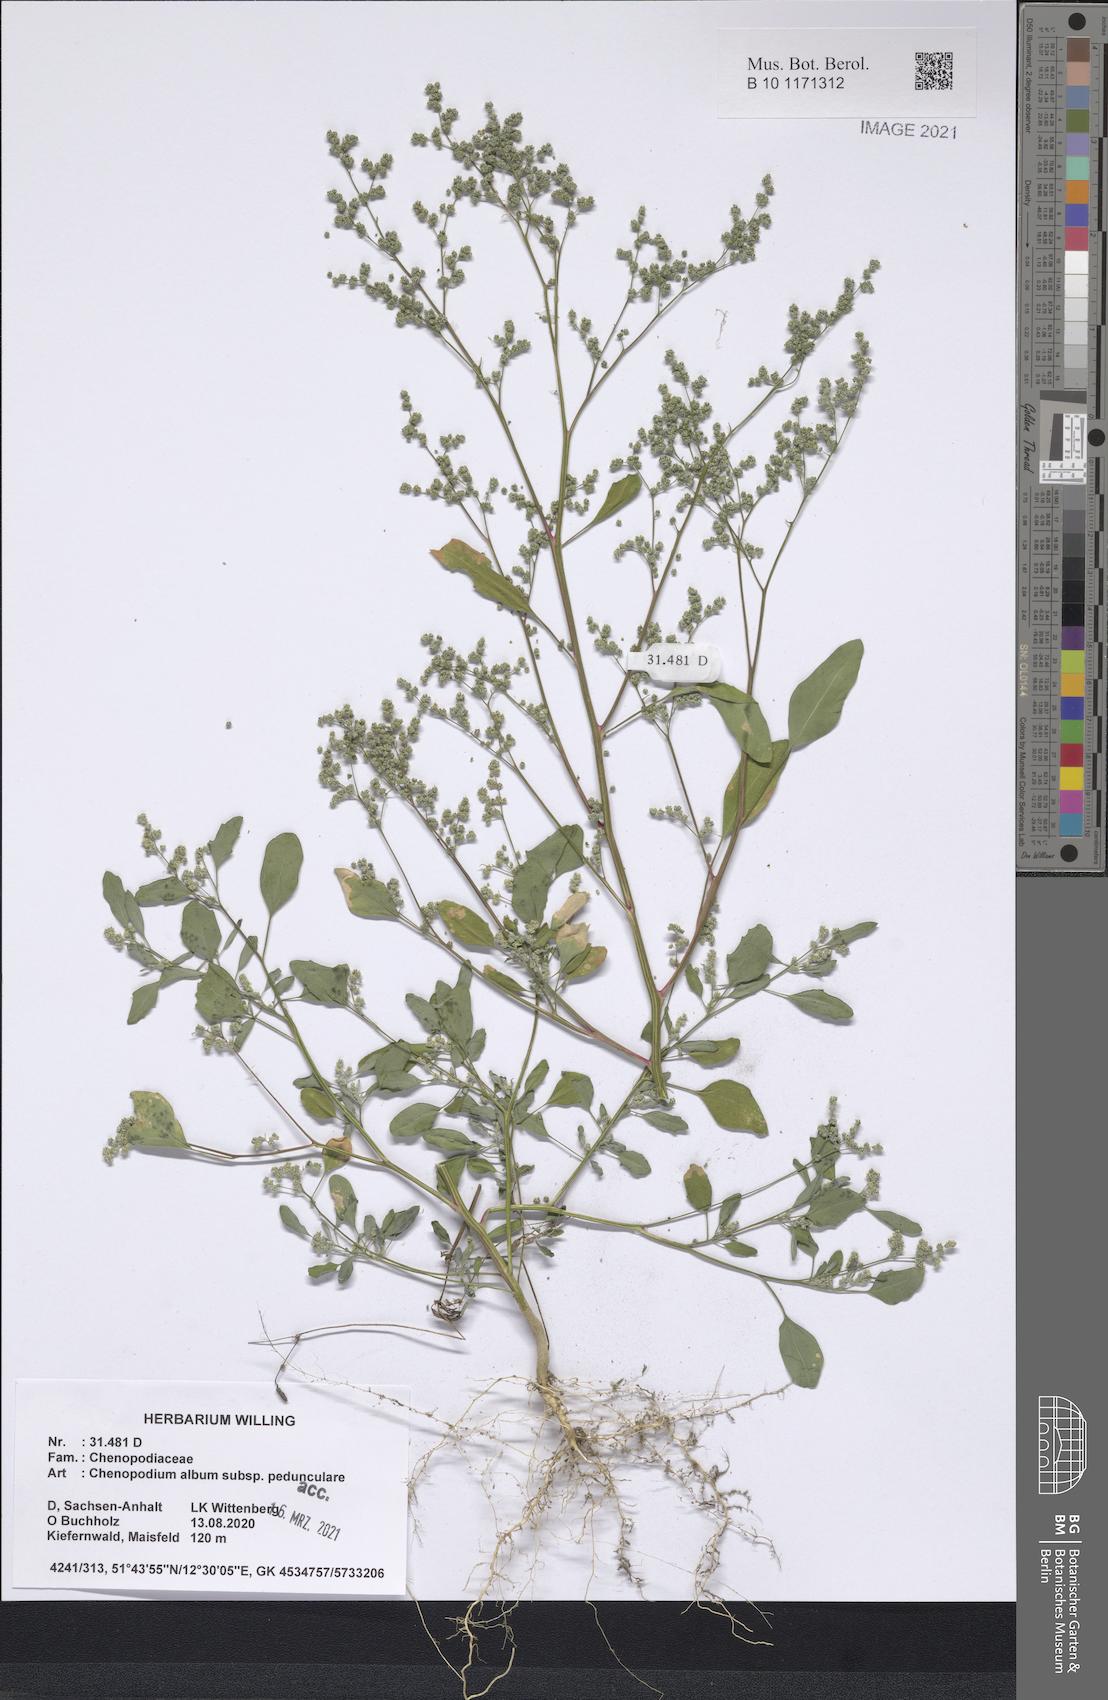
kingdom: Plantae
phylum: Tracheophyta
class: Magnoliopsida
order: Caryophyllales
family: Amaranthaceae
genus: Chenopodium
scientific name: Chenopodium album
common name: Fat-hen
